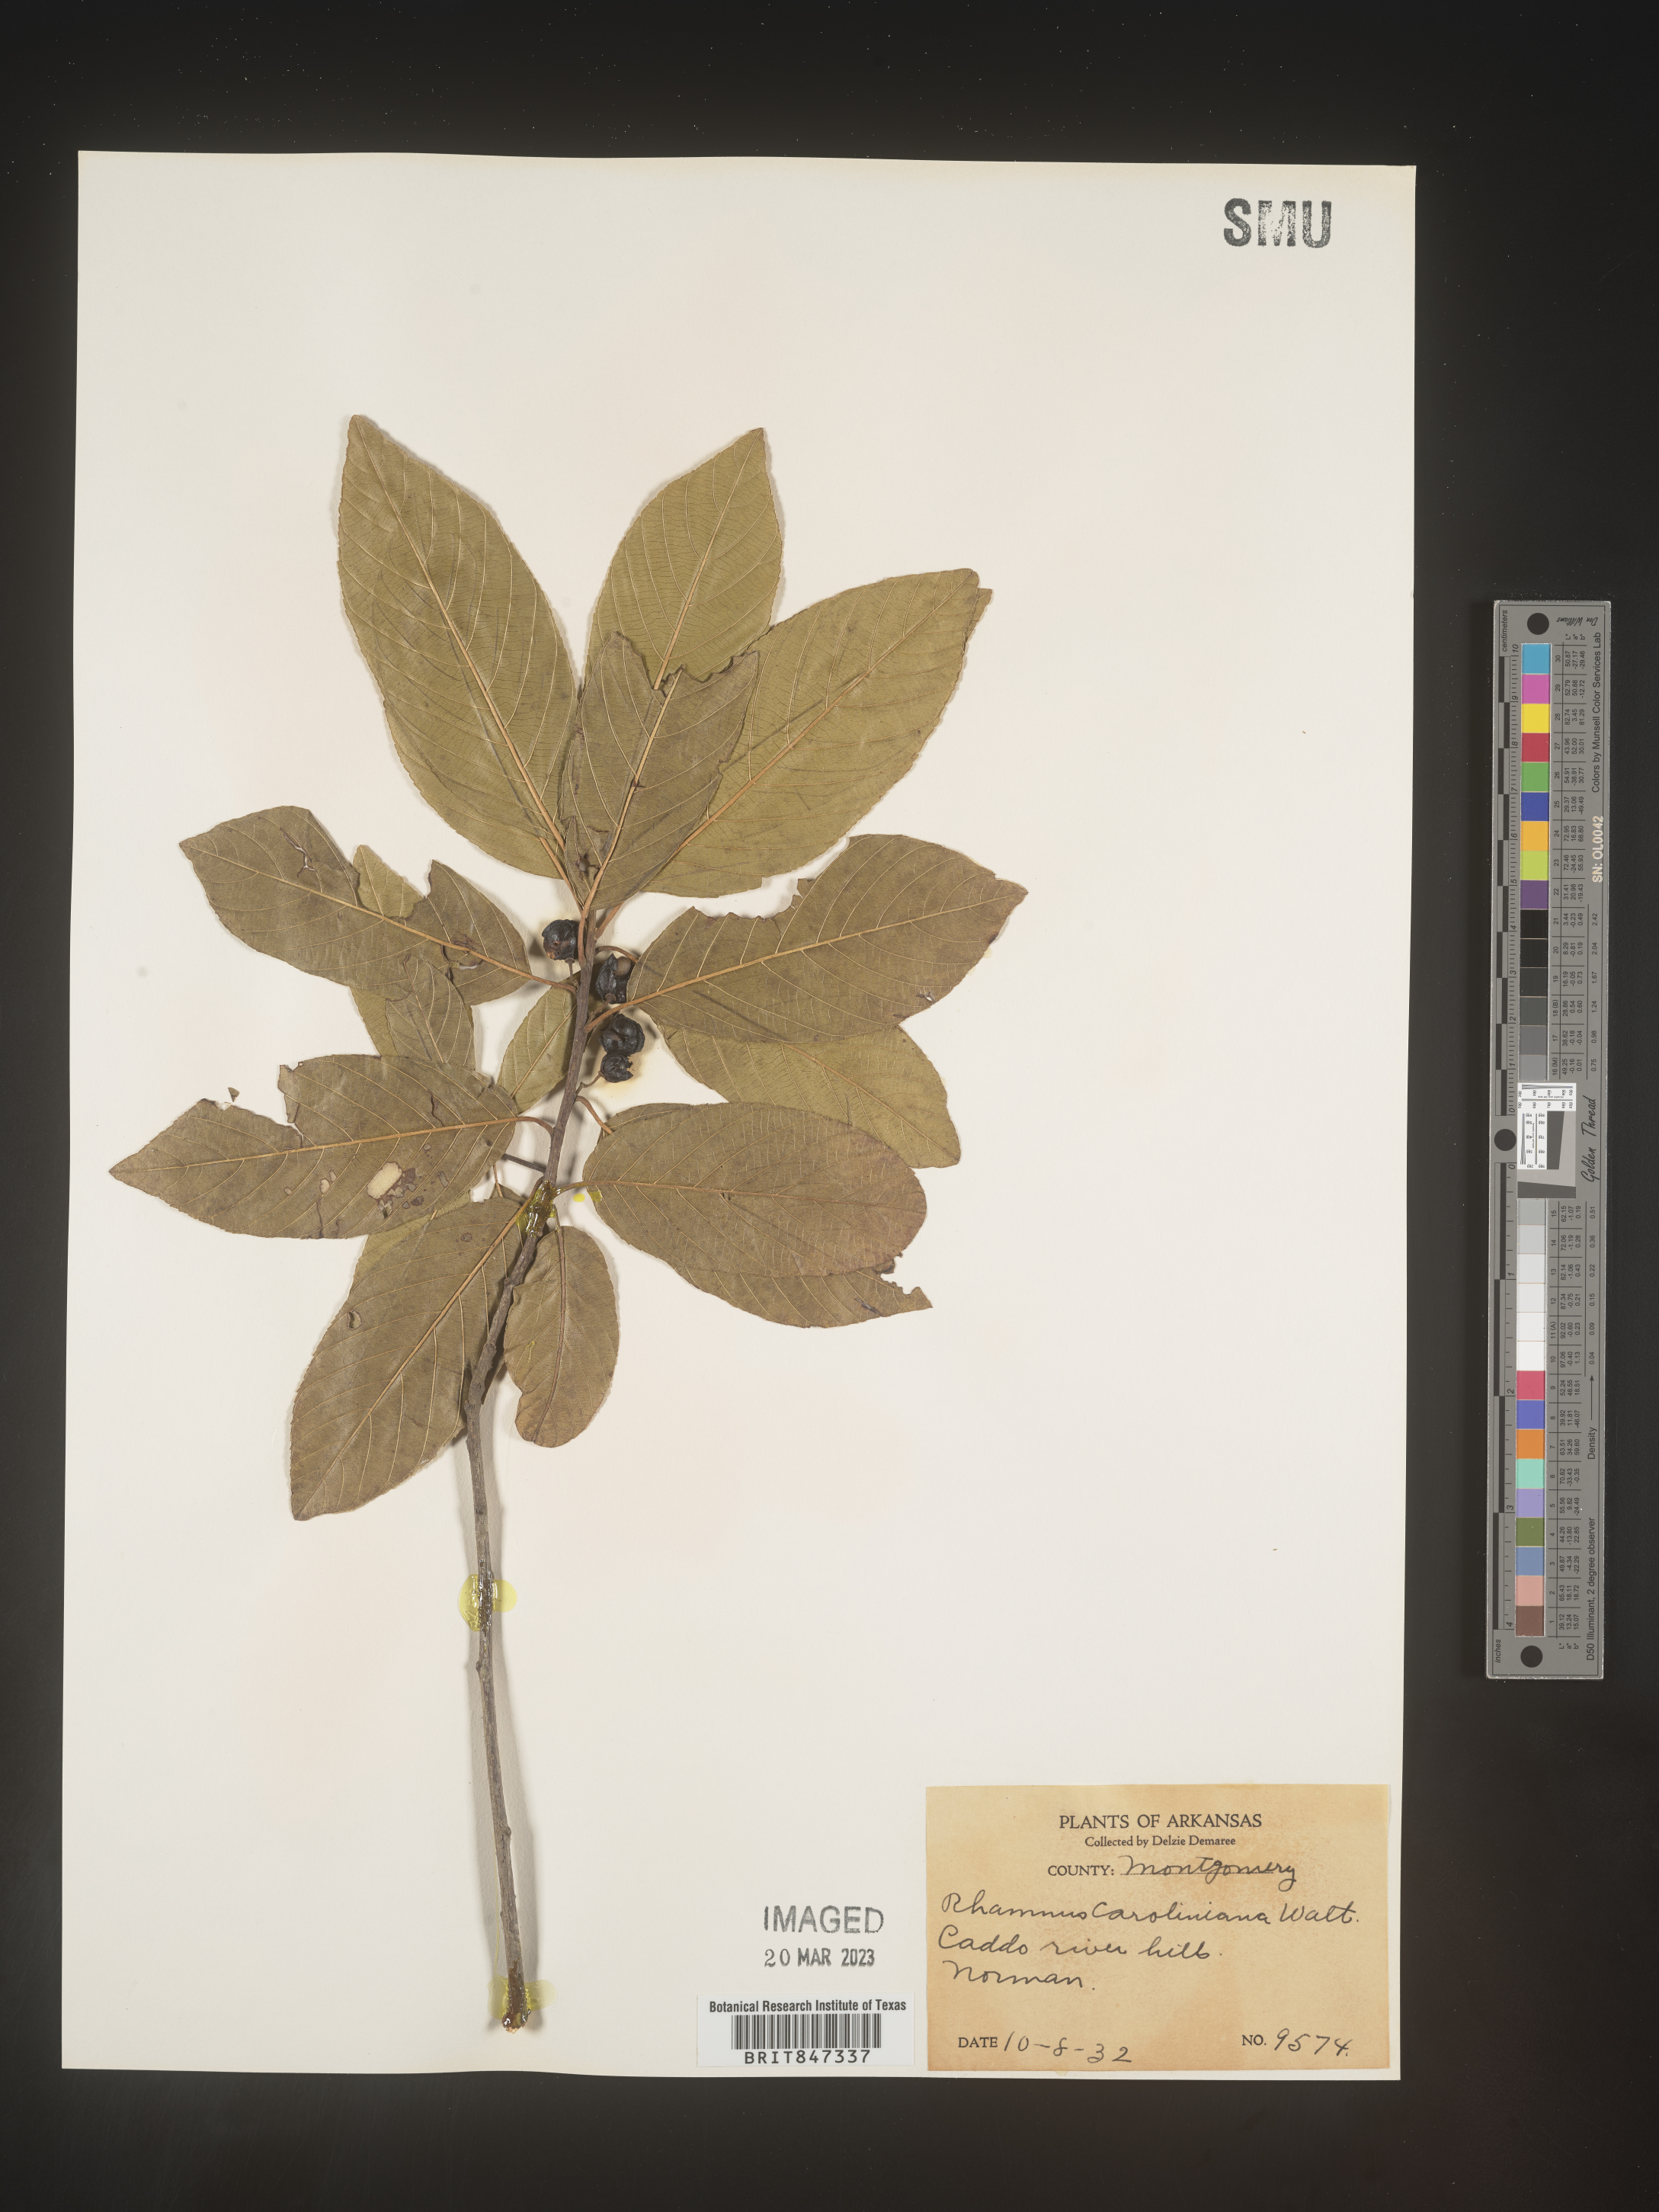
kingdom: Plantae
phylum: Tracheophyta
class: Magnoliopsida
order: Rosales
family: Rhamnaceae
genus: Frangula
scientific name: Frangula caroliniana
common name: Carolina buckthorn
